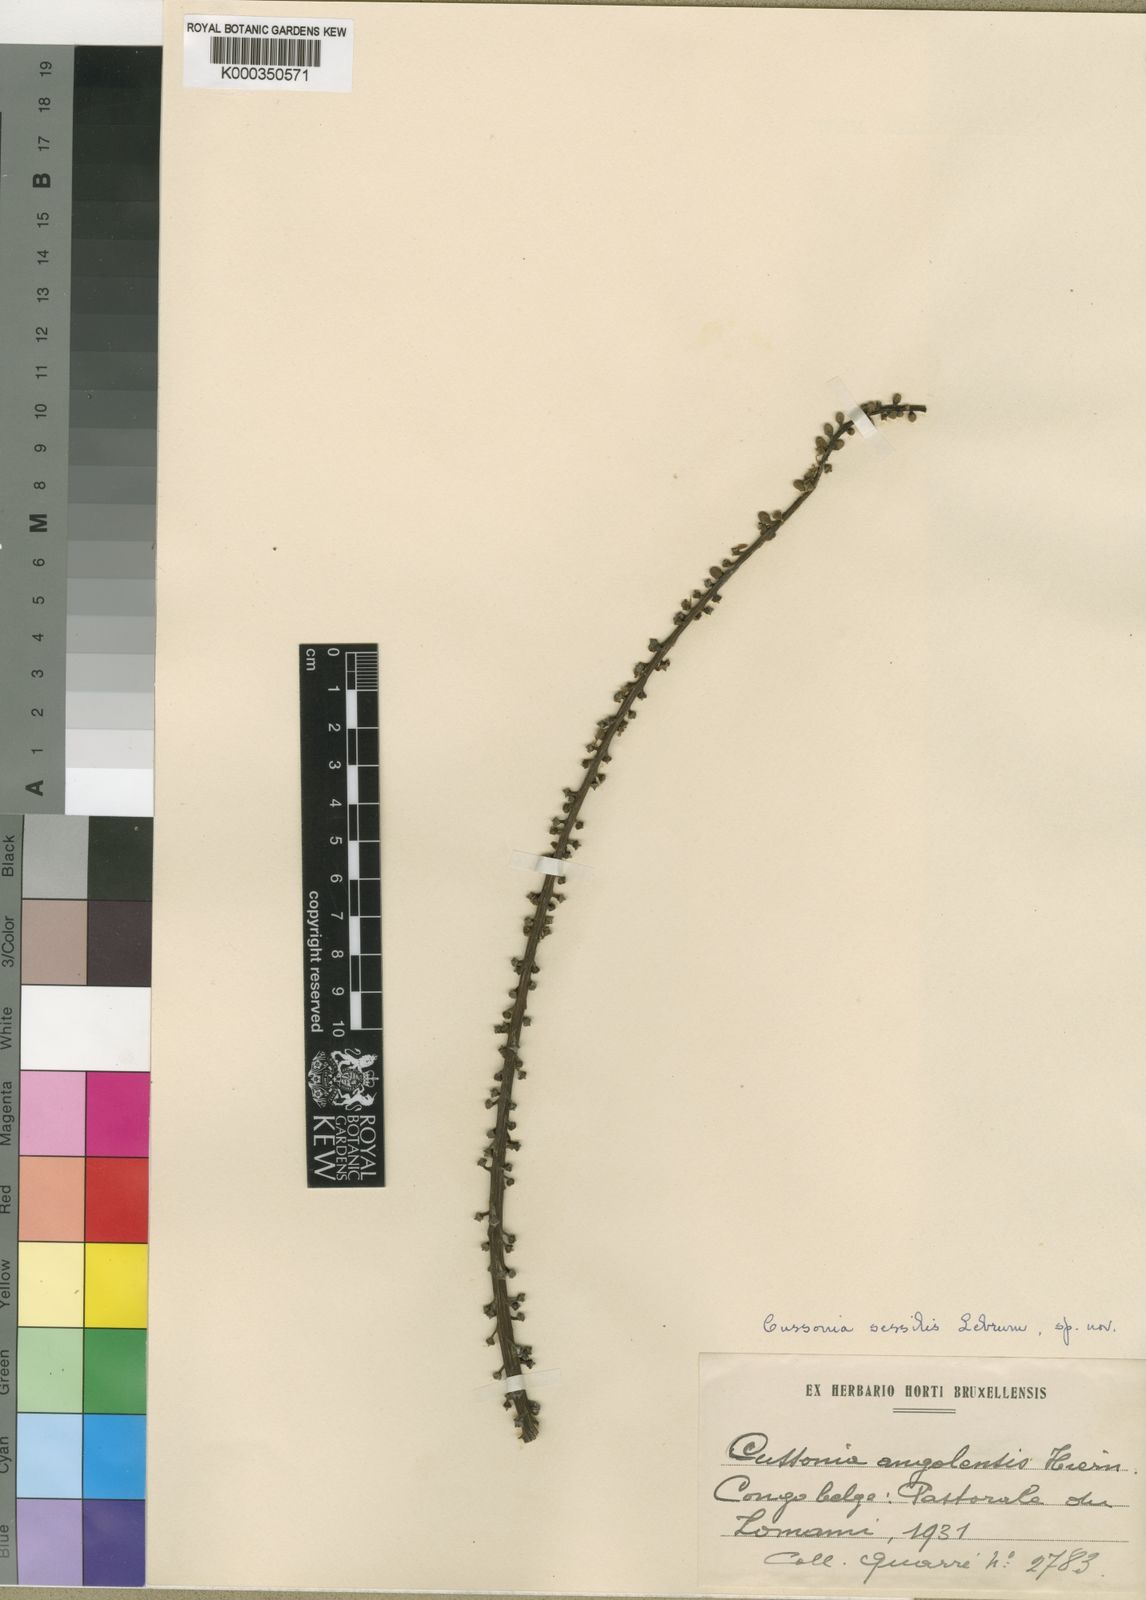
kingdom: Plantae
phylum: Tracheophyta
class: Magnoliopsida
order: Apiales
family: Araliaceae
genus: Cussonia
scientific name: Cussonia sessilis
